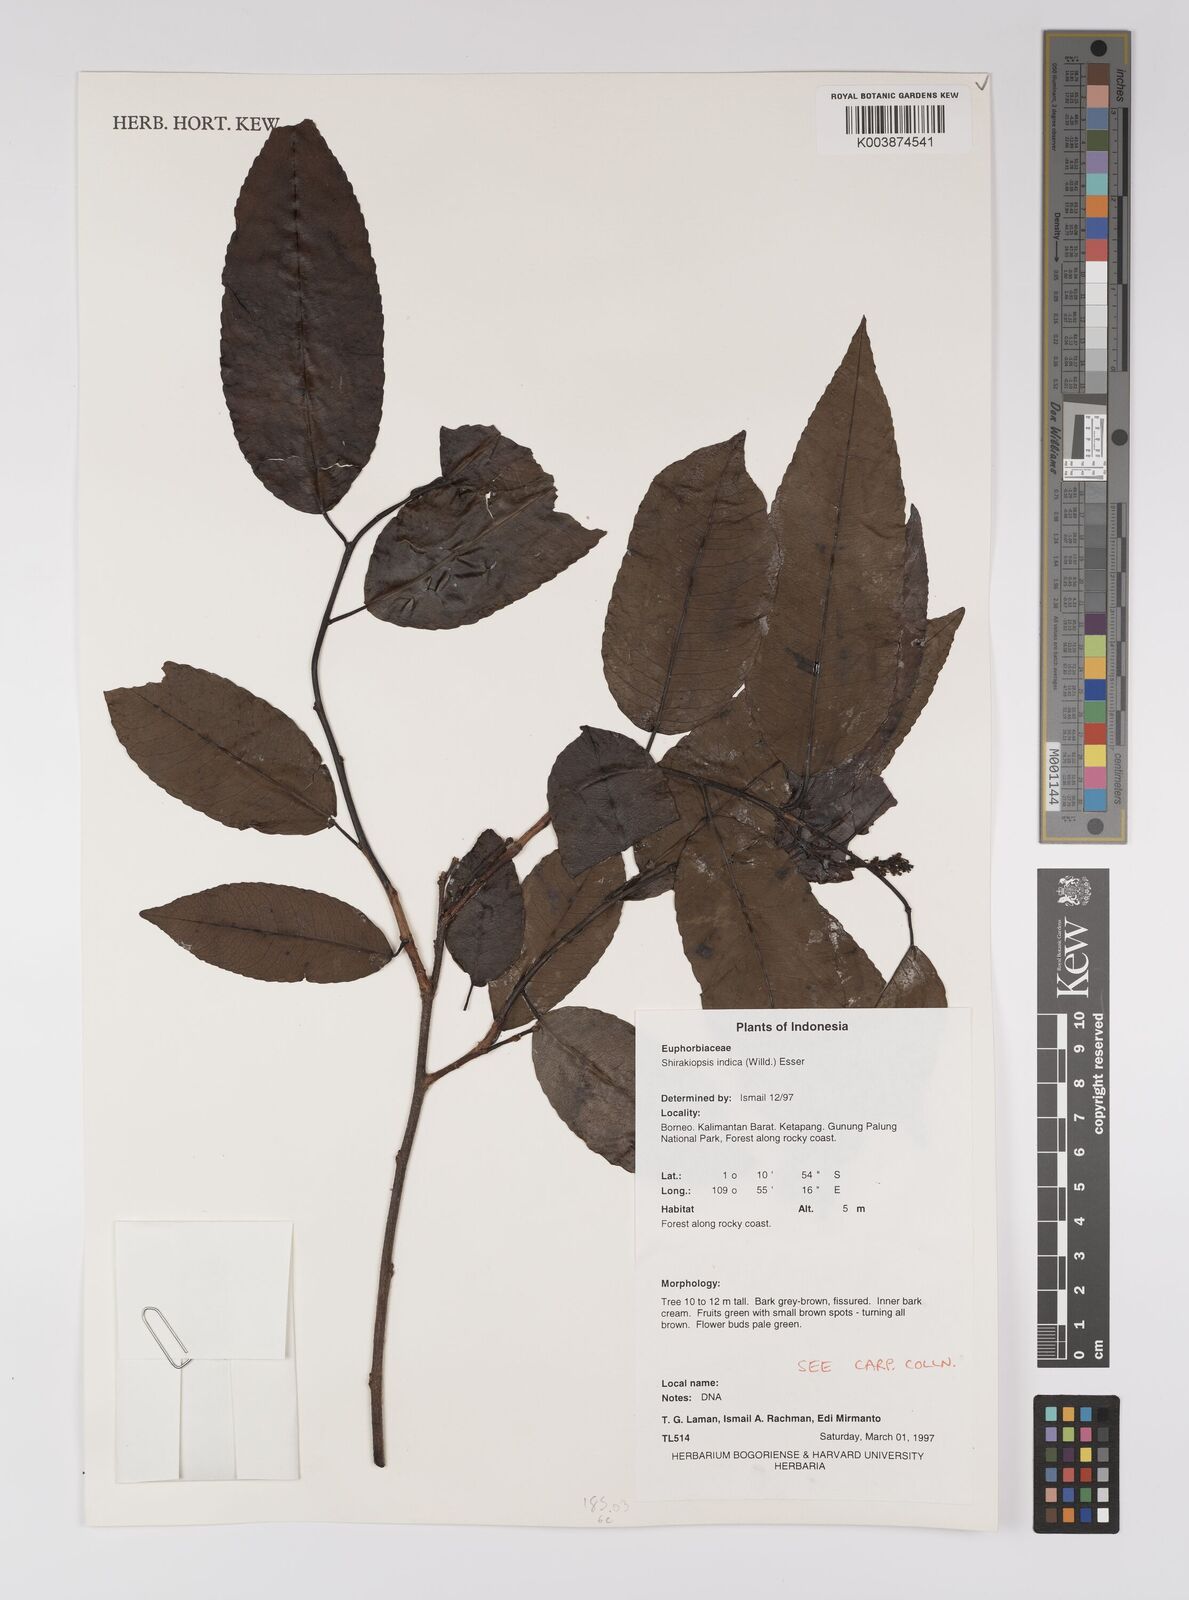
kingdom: Plantae
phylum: Tracheophyta
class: Magnoliopsida
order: Malpighiales
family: Euphorbiaceae
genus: Shirakiopsis
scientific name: Shirakiopsis indica
